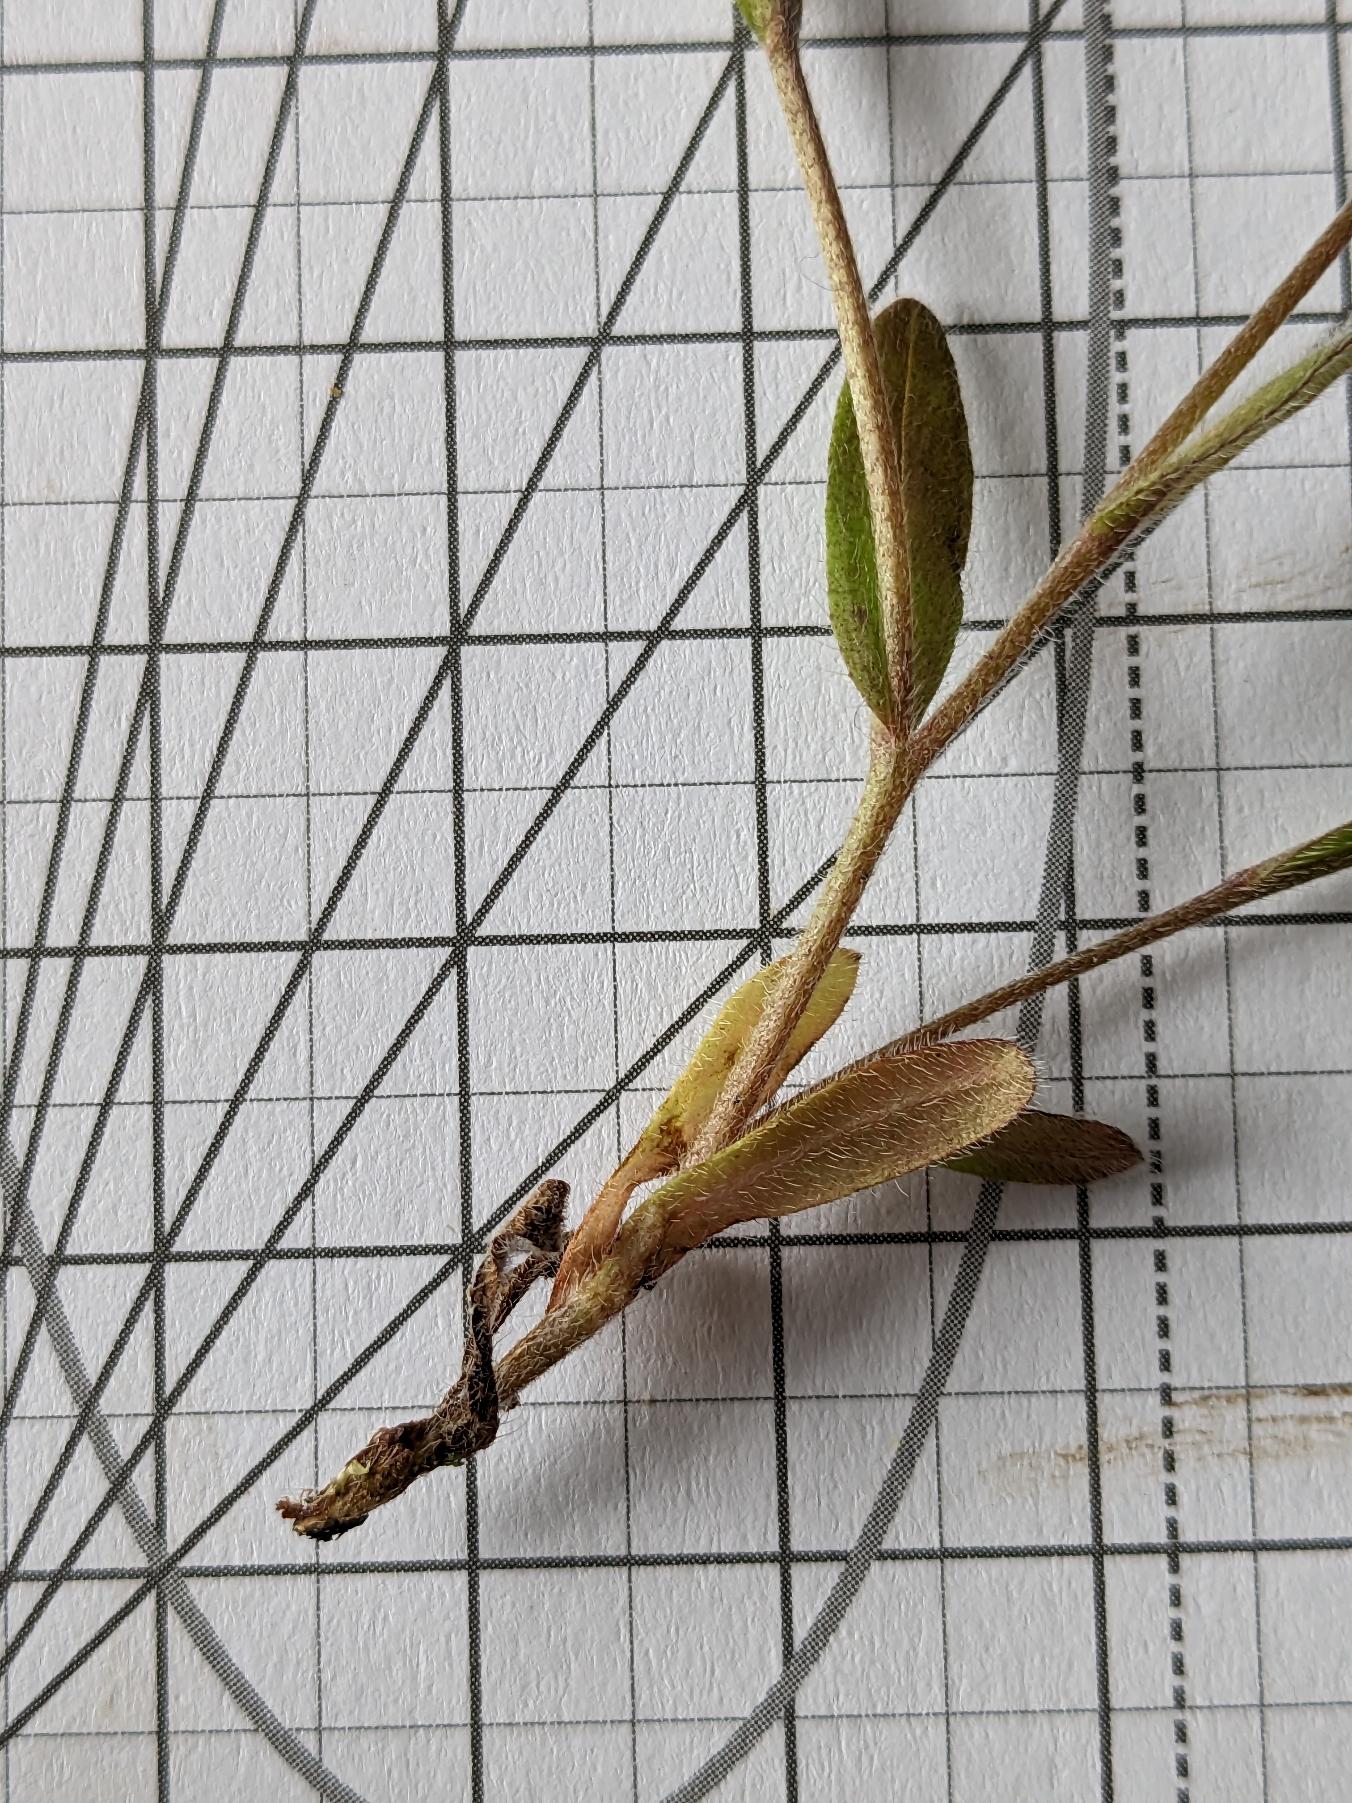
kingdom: Plantae
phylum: Tracheophyta
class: Magnoliopsida
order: Boraginales
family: Boraginaceae
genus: Myosotis
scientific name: Myosotis discolor
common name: Forskelligfarvet forglemmigej
